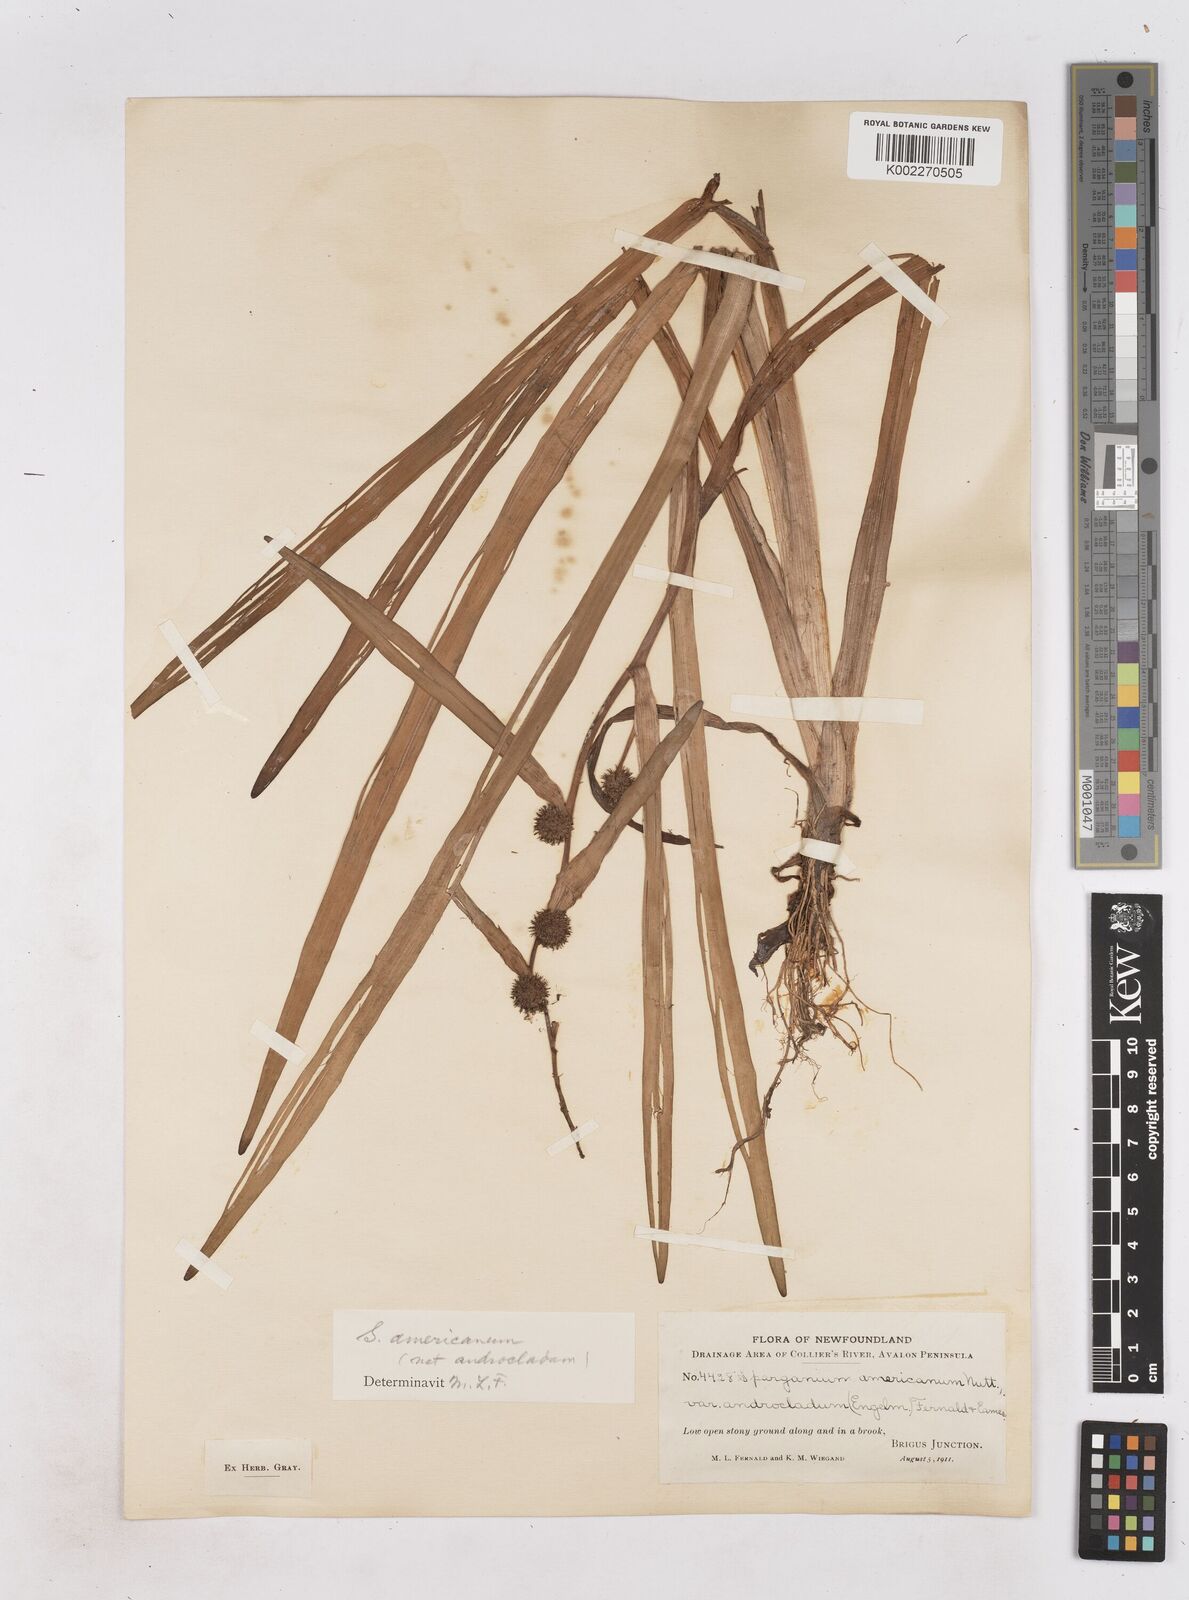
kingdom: Plantae
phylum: Tracheophyta
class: Liliopsida
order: Poales
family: Typhaceae
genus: Sparganium
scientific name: Sparganium americanum
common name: American burreed
